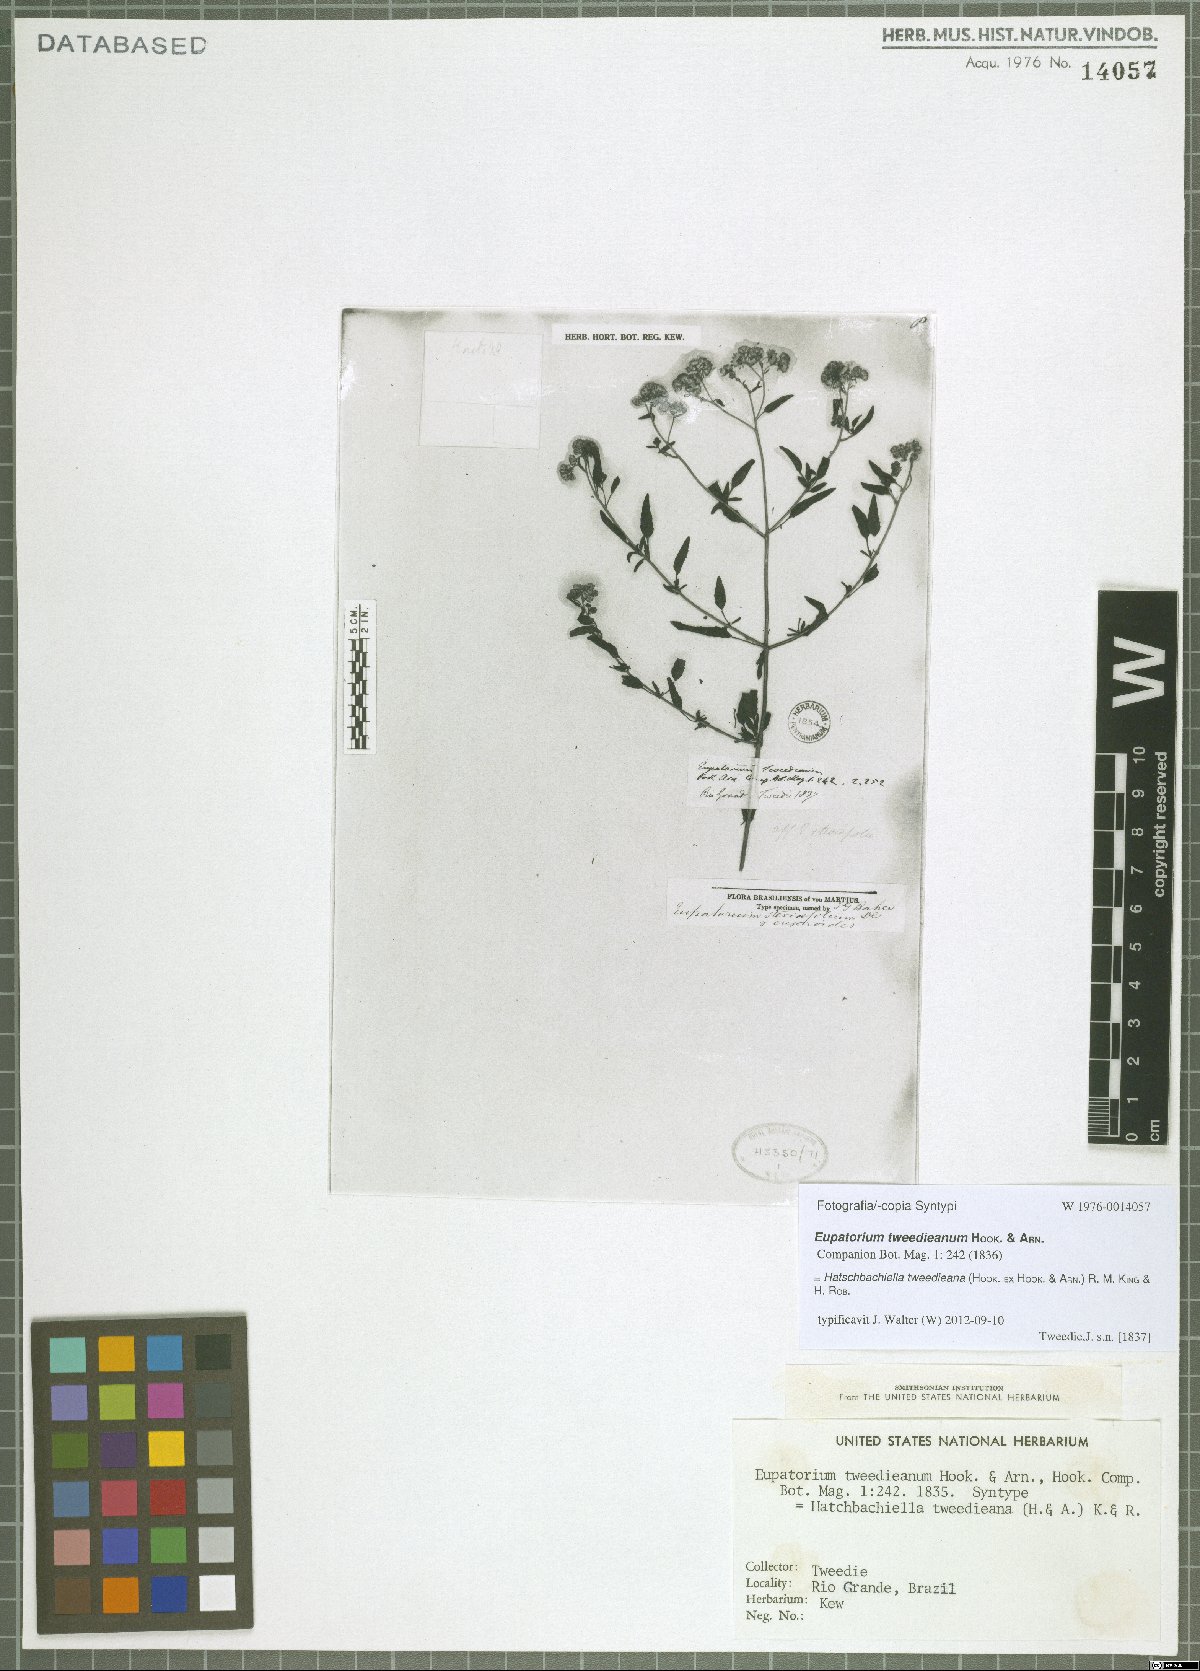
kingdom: Plantae
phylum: Tracheophyta
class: Magnoliopsida
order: Asterales
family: Asteraceae
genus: Hatschbachiella
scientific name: Hatschbachiella tweedieana
